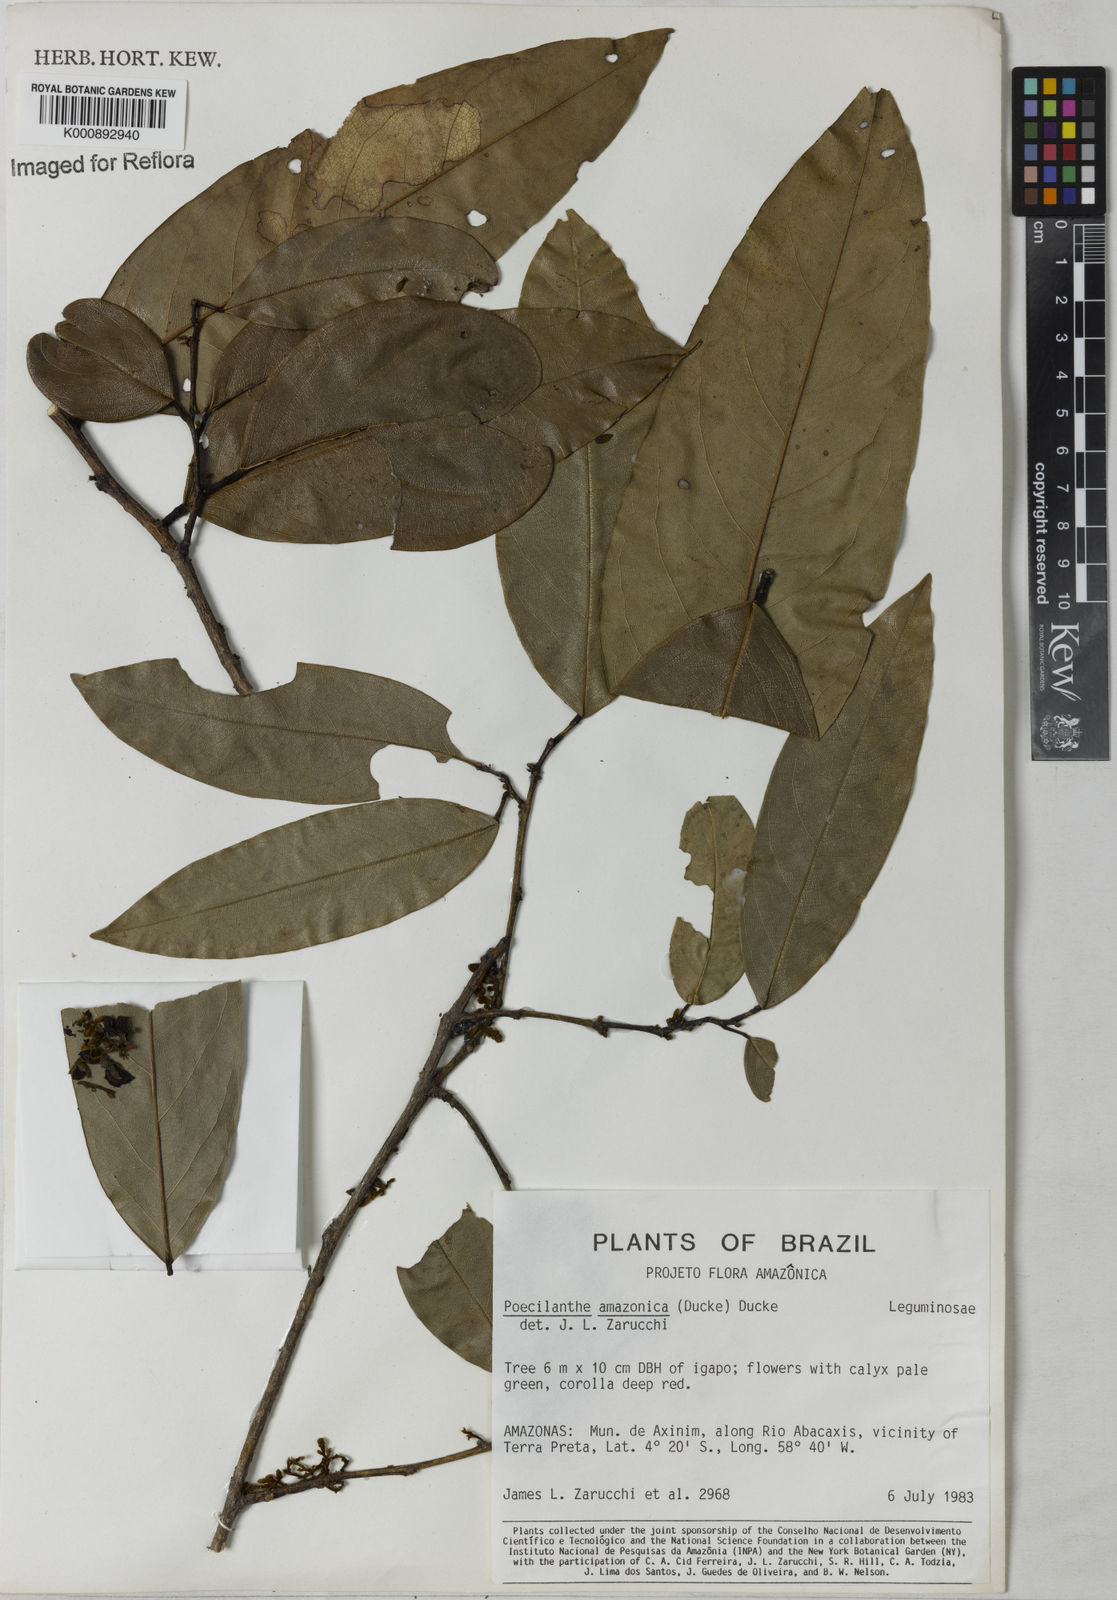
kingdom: Plantae
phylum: Tracheophyta
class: Magnoliopsida
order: Fabales
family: Fabaceae
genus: Limadendron
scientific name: Limadendron amazonicum
